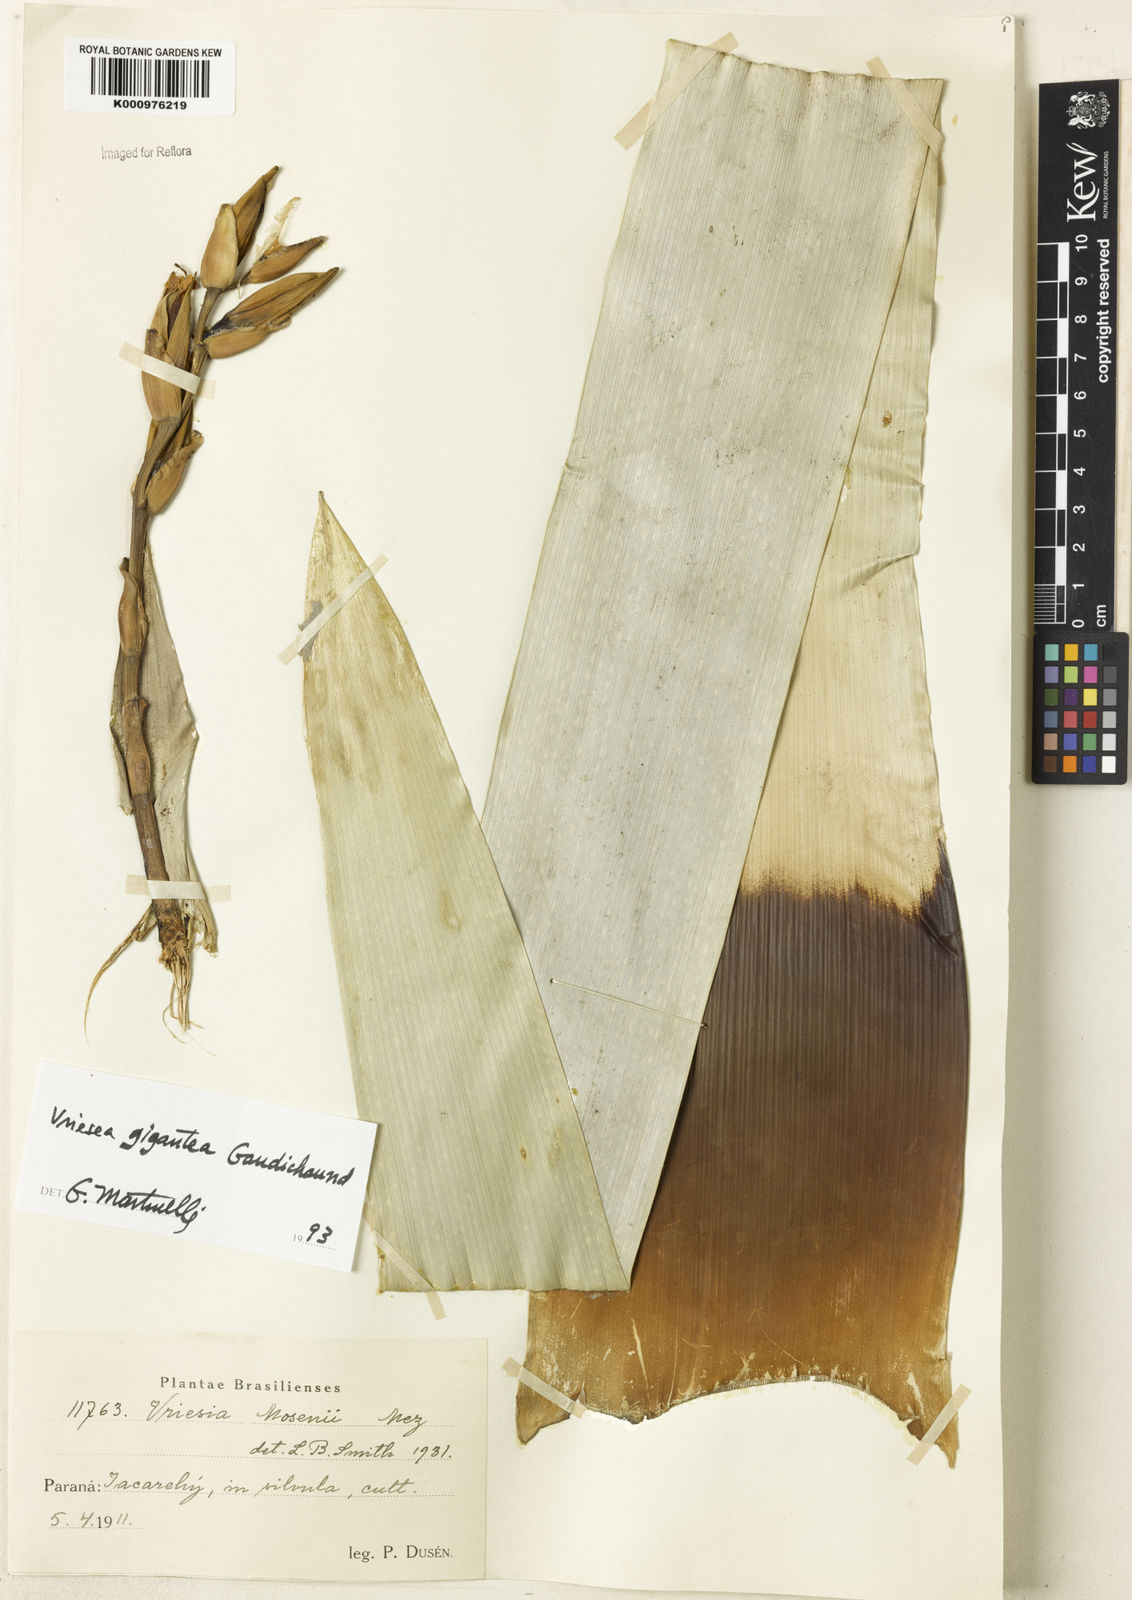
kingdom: Plantae
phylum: Tracheophyta
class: Liliopsida
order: Poales
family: Bromeliaceae
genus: Vriesea
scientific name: Vriesea gigantea
